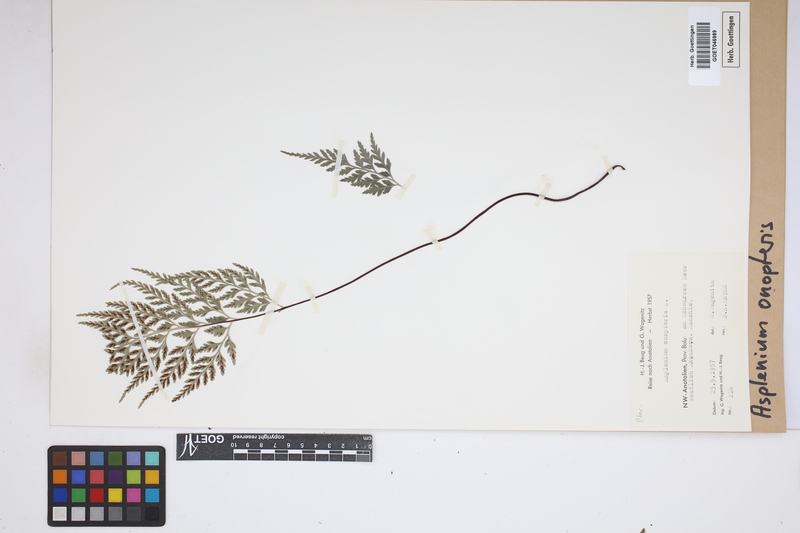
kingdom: Plantae
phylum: Tracheophyta
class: Polypodiopsida
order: Polypodiales
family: Aspleniaceae
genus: Asplenium
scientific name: Asplenium onopteris
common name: Irish spleenwort
